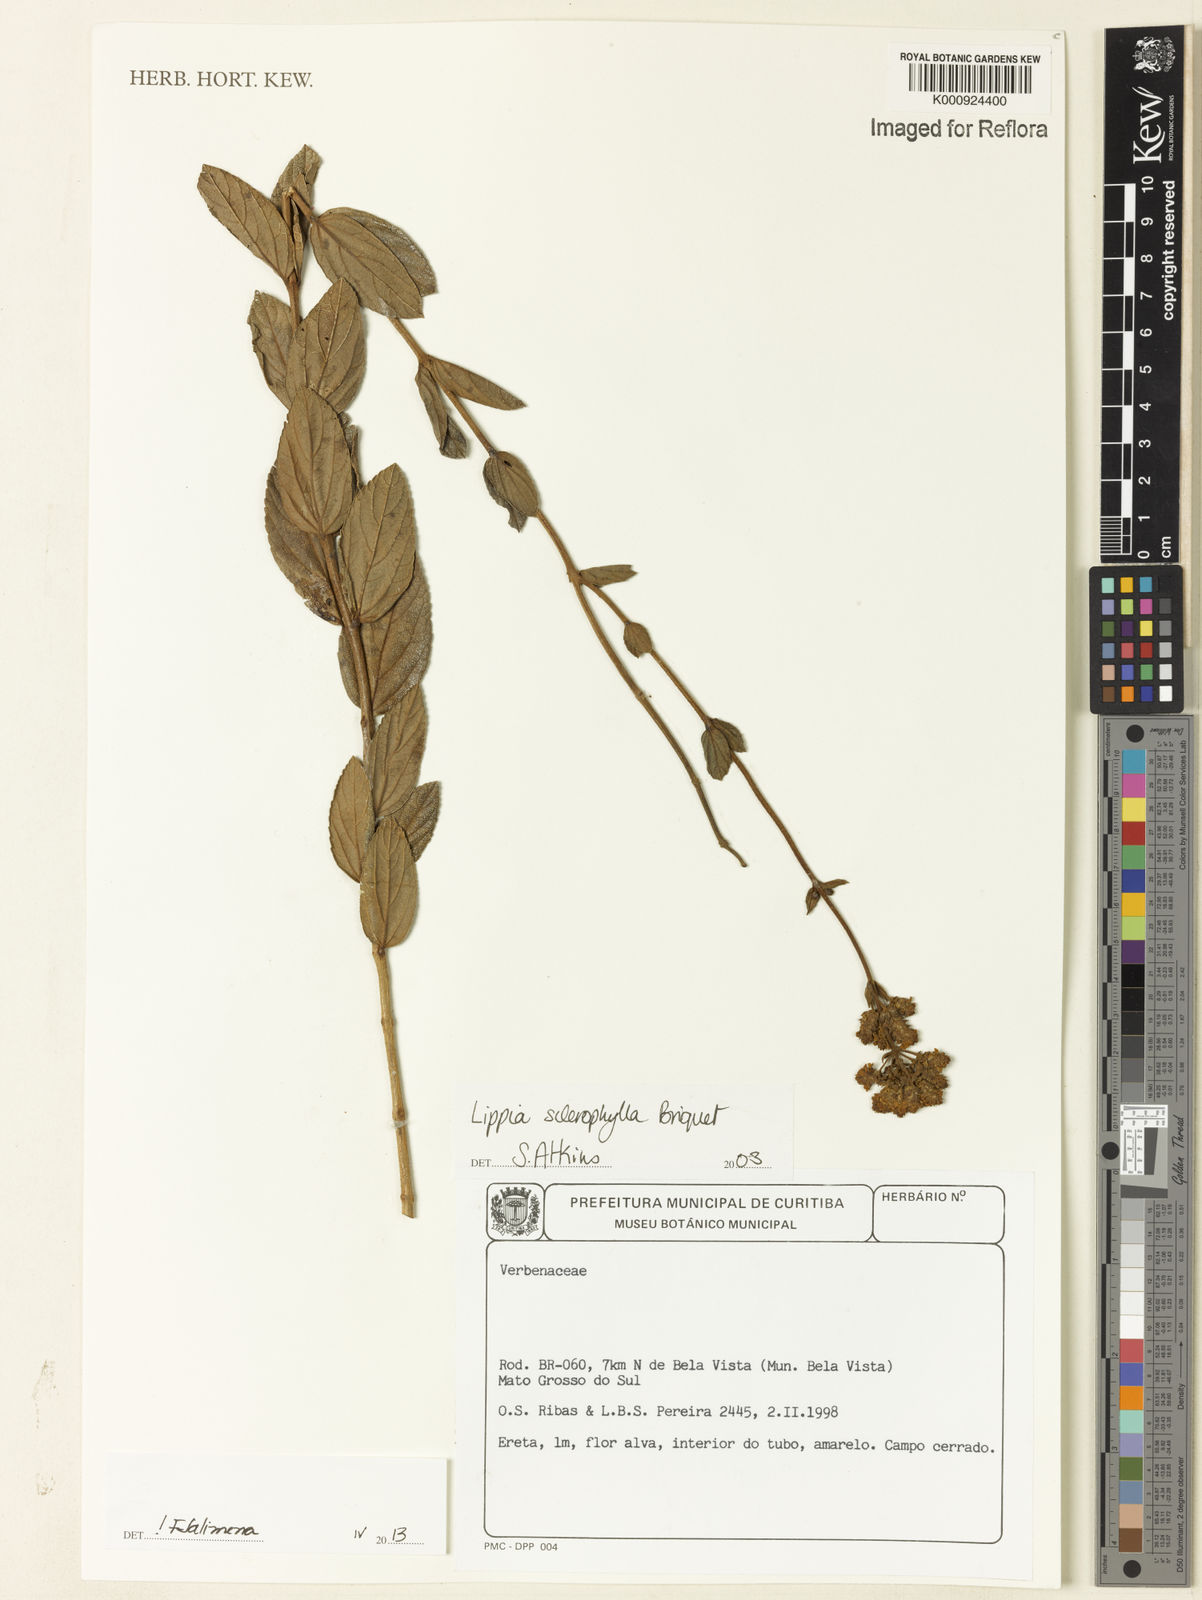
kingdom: Plantae
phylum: Tracheophyta
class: Magnoliopsida
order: Lamiales
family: Verbenaceae
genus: Lippia
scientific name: Lippia sclerophylla
